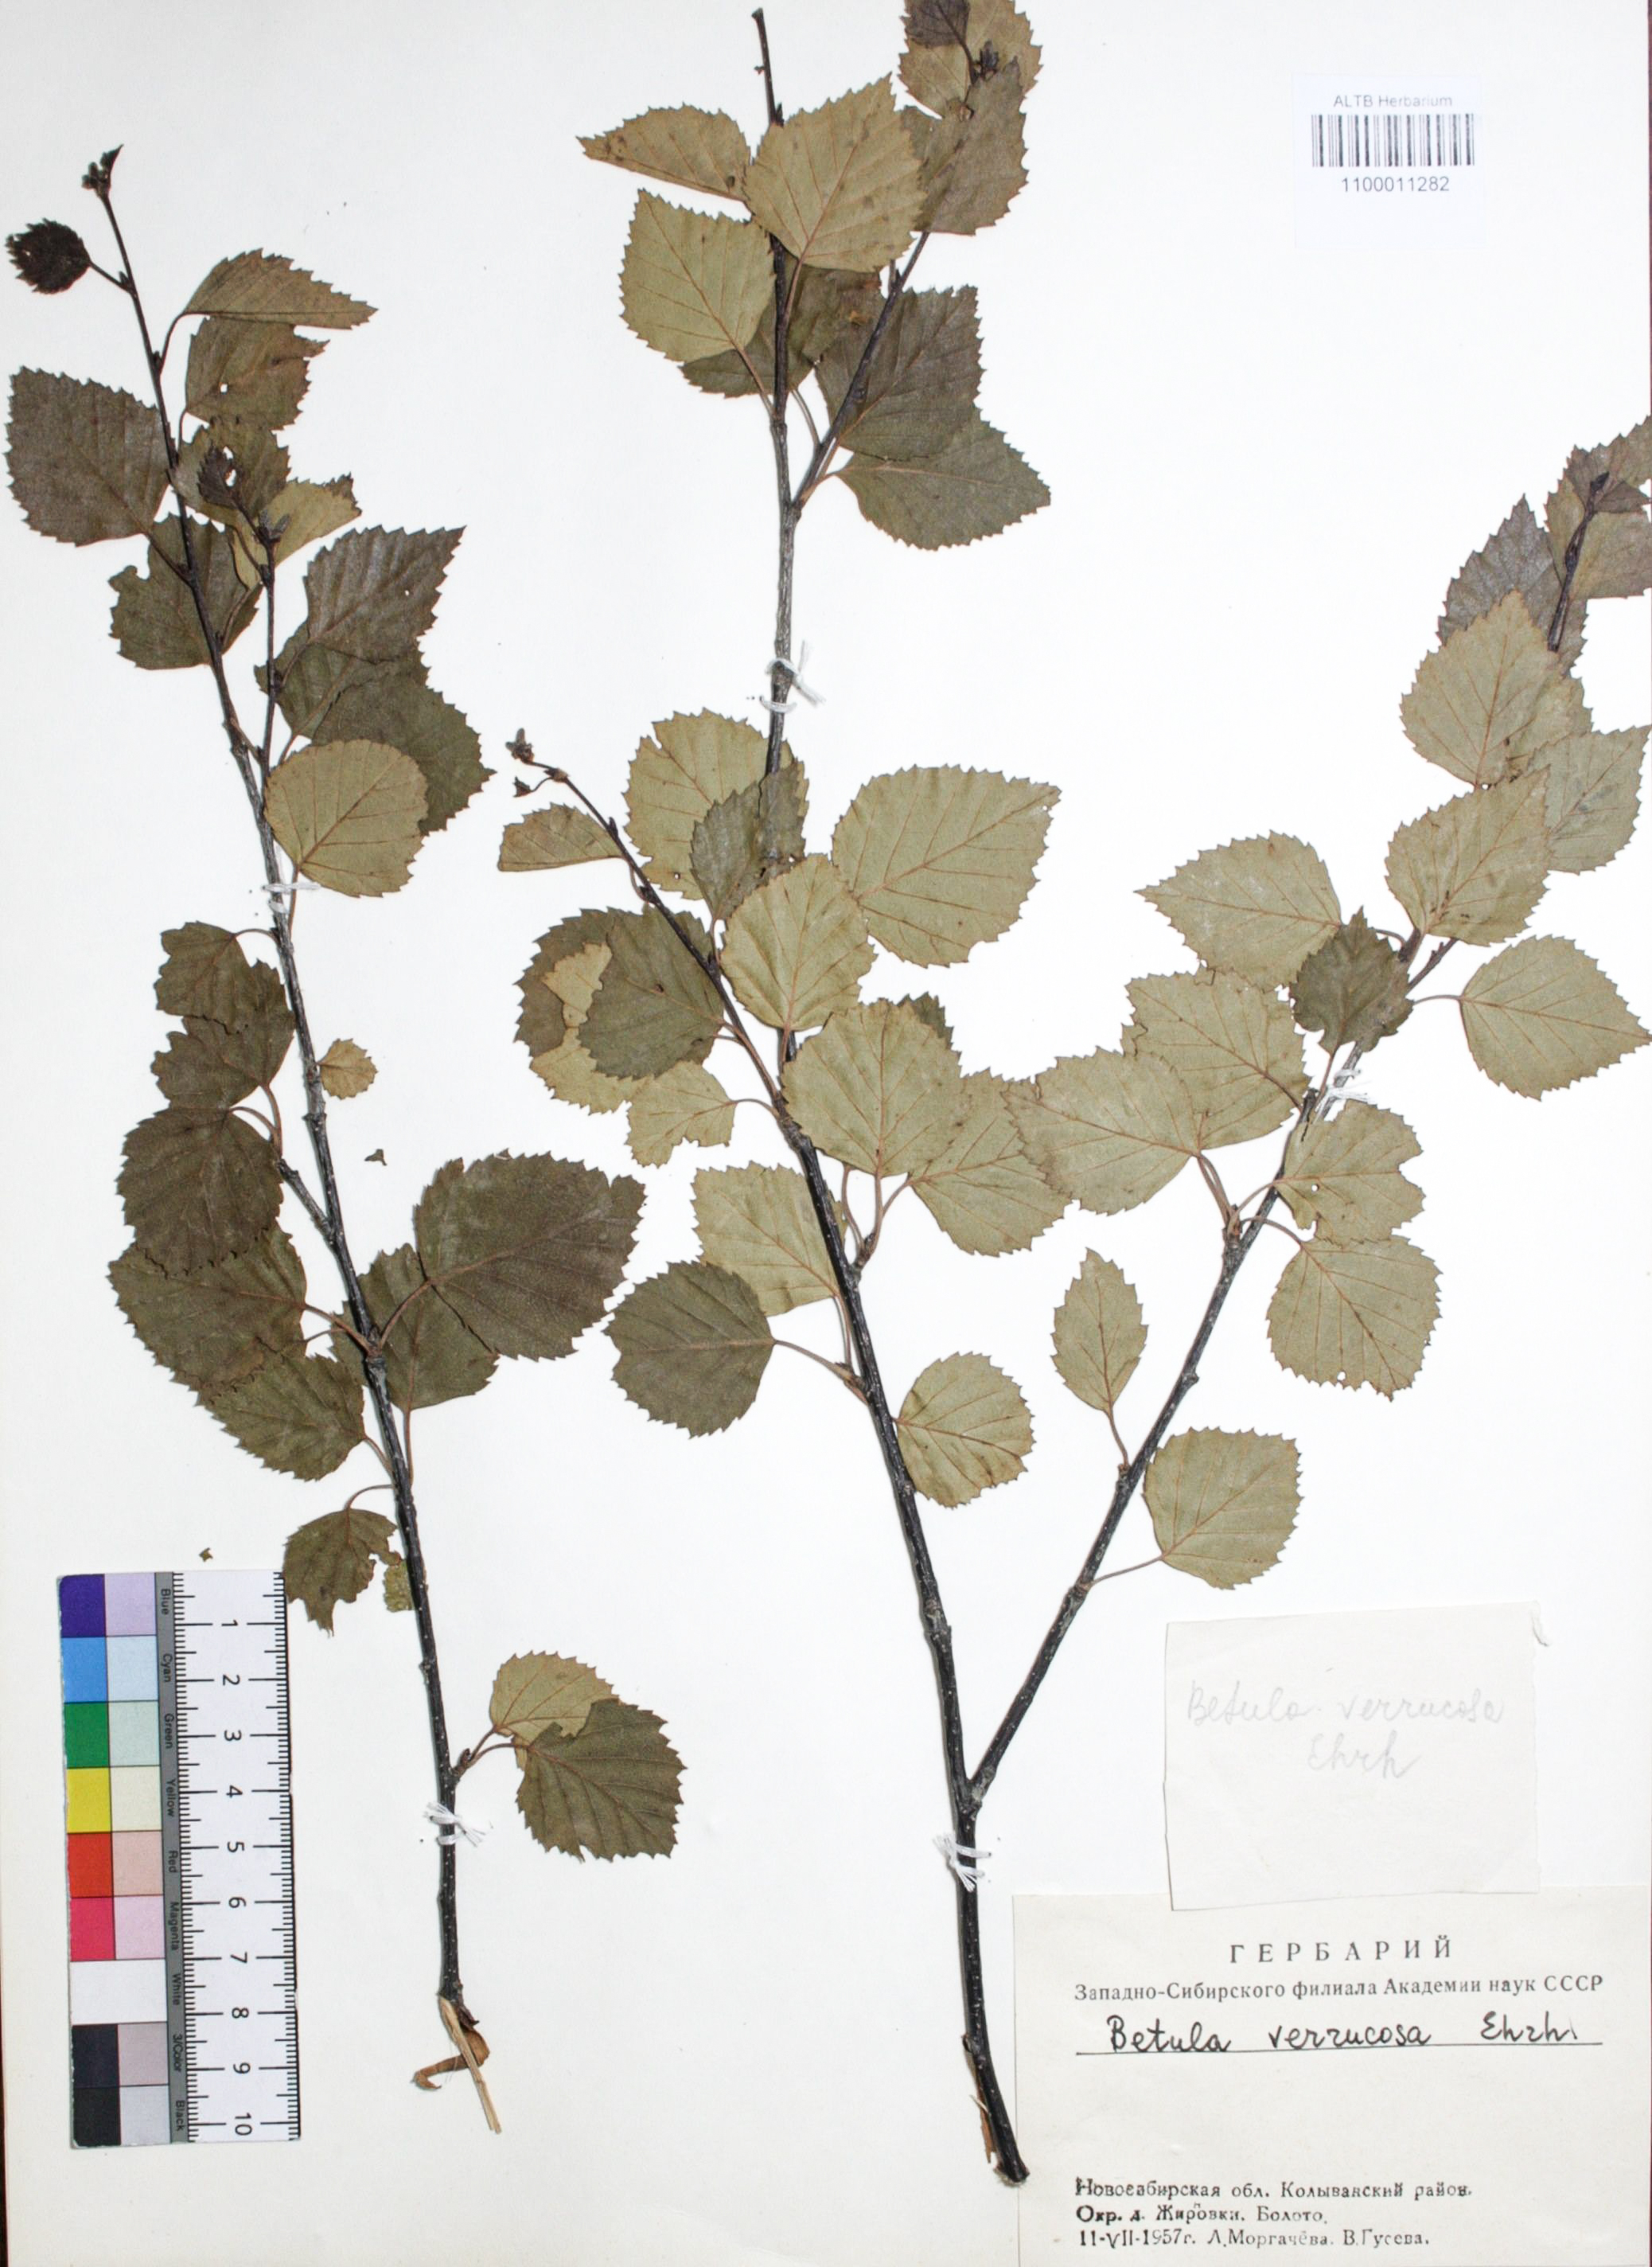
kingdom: Plantae
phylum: Tracheophyta
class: Magnoliopsida
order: Fagales
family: Betulaceae
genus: Betula
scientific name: Betula pendula
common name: Silver birch
